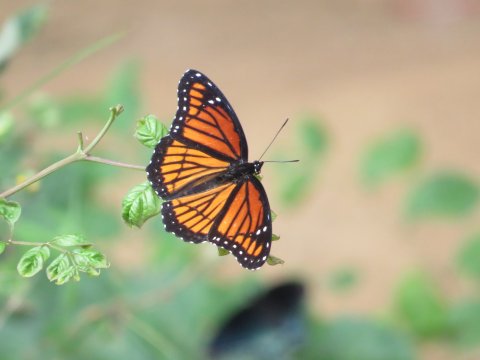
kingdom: Animalia
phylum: Arthropoda
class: Insecta
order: Lepidoptera
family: Nymphalidae
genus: Limenitis
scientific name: Limenitis archippus
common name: Viceroy
